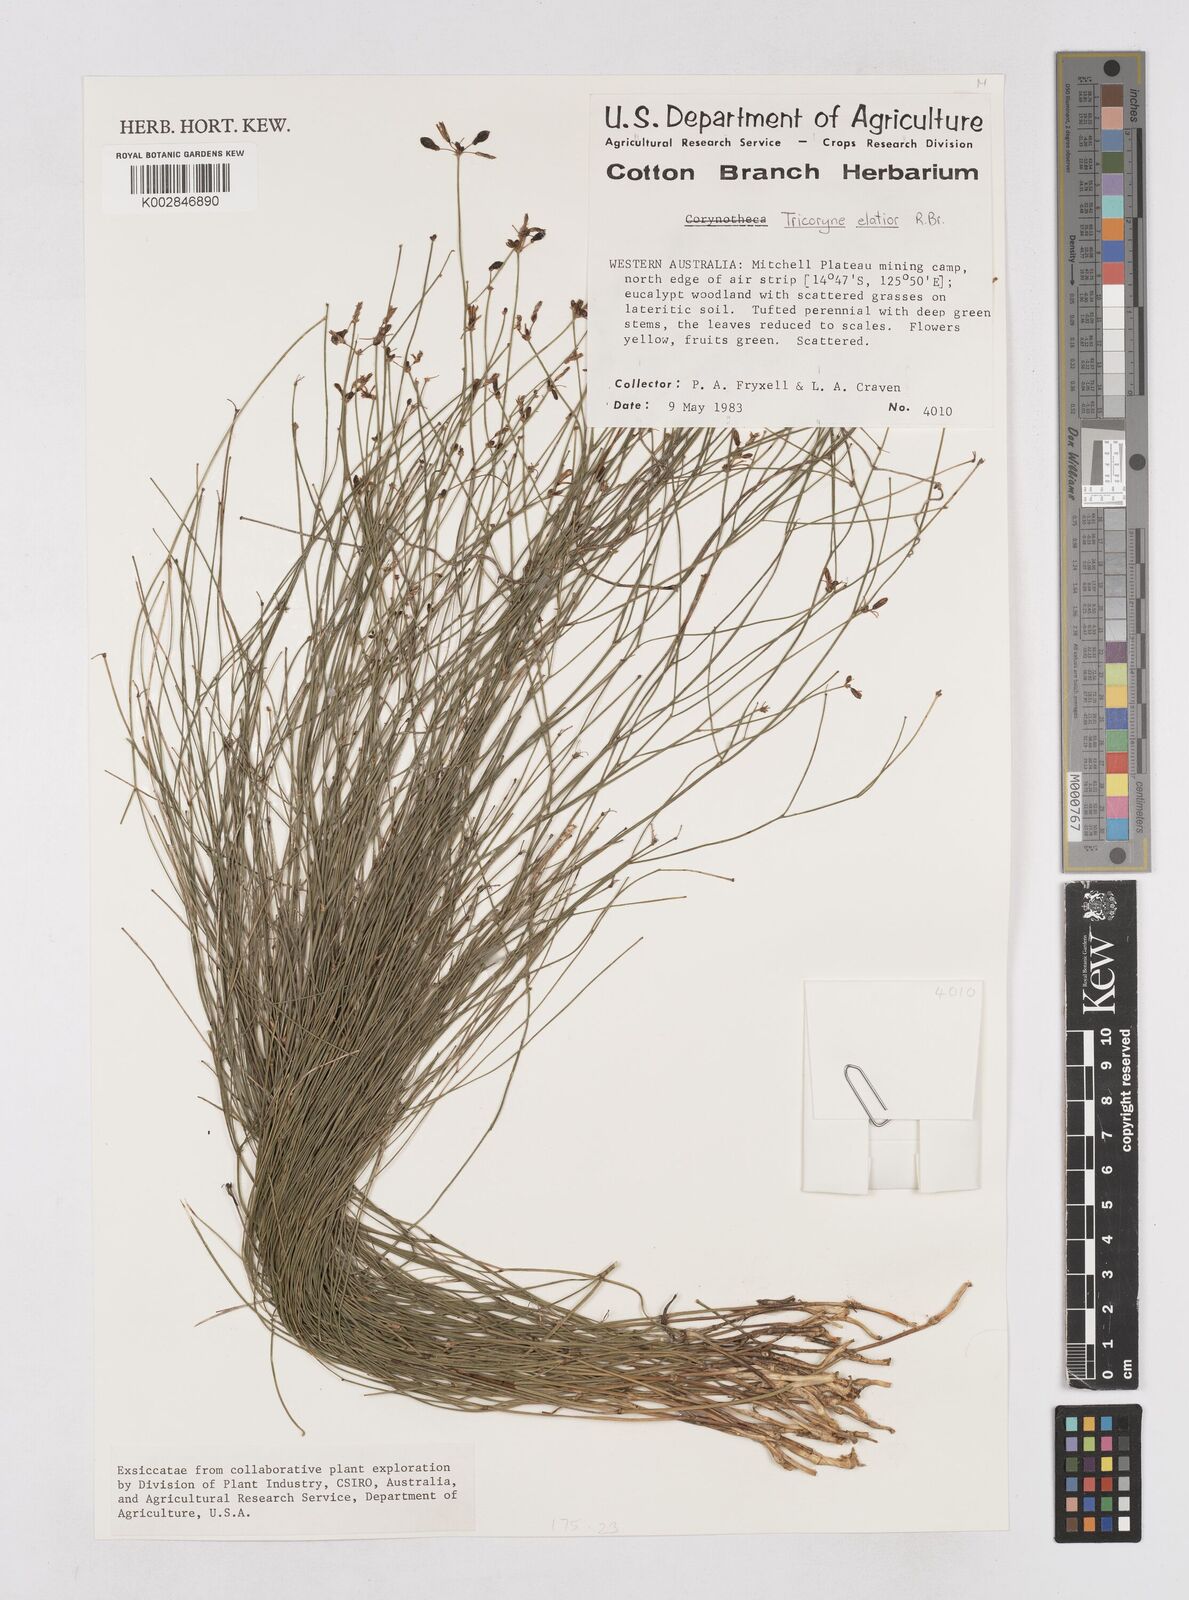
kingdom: Plantae
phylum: Tracheophyta
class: Liliopsida
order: Asparagales
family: Asphodelaceae
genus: Tricoryne
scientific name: Tricoryne elatior
